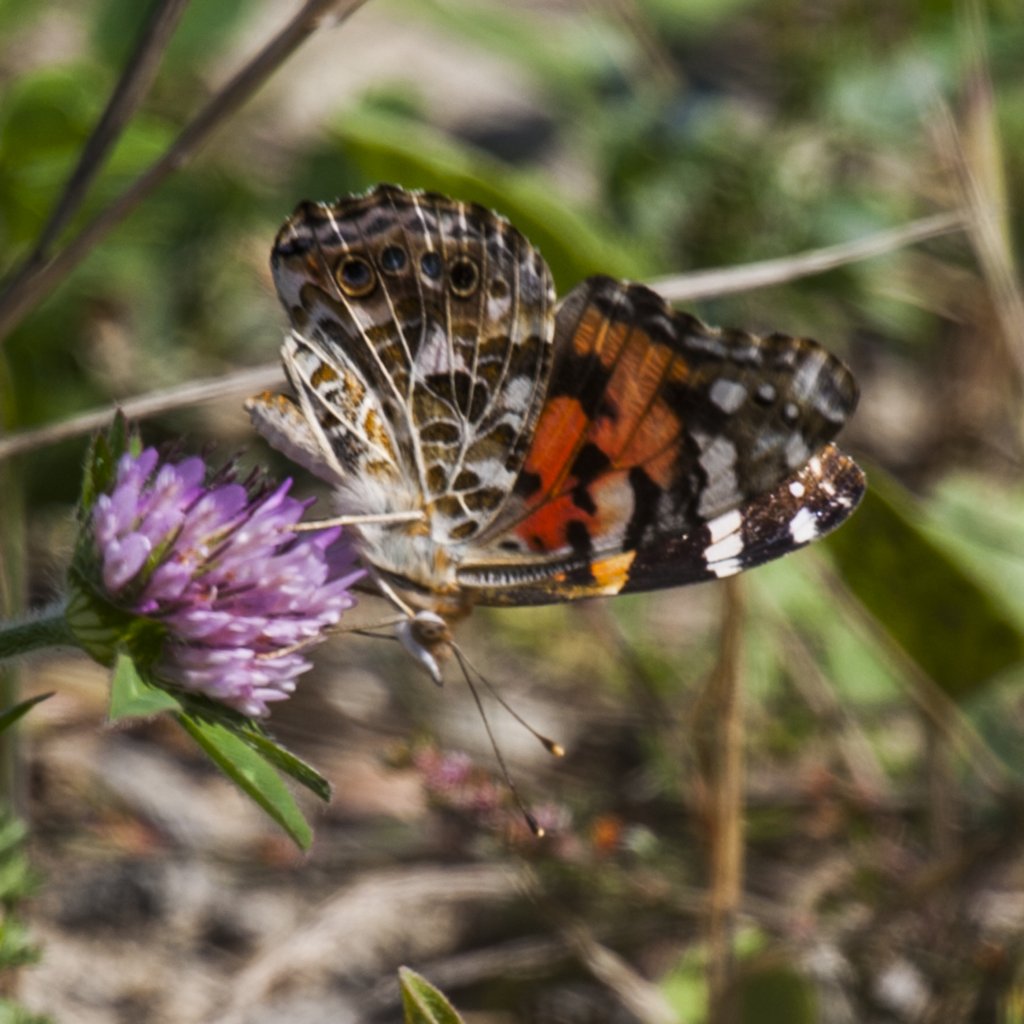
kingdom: Animalia
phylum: Arthropoda
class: Insecta
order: Lepidoptera
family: Nymphalidae
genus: Vanessa
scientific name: Vanessa cardui
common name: Painted Lady
